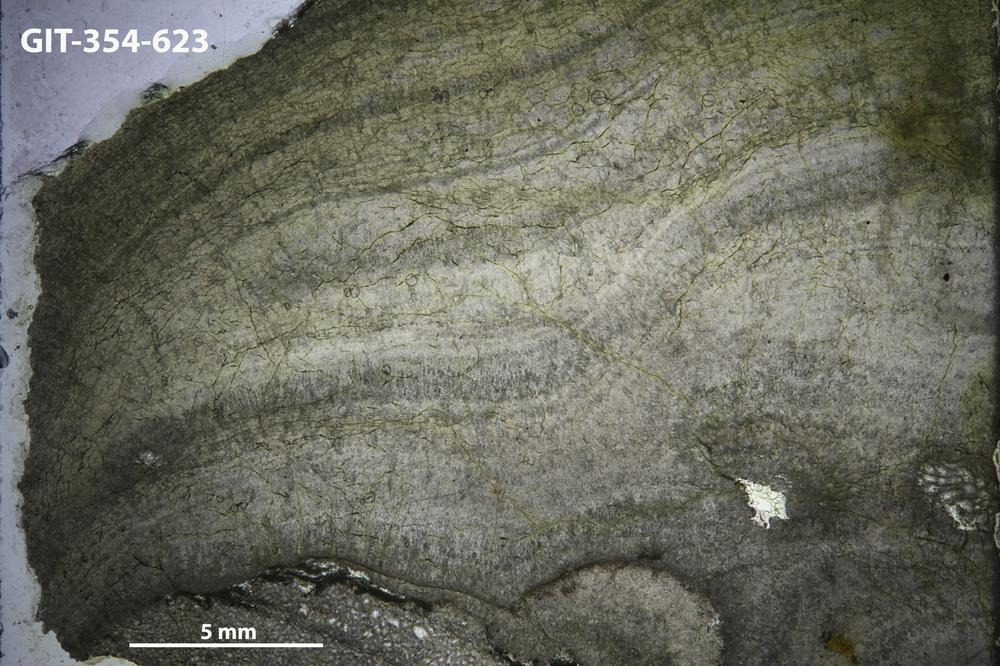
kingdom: Animalia
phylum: Porifera
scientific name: Porifera
